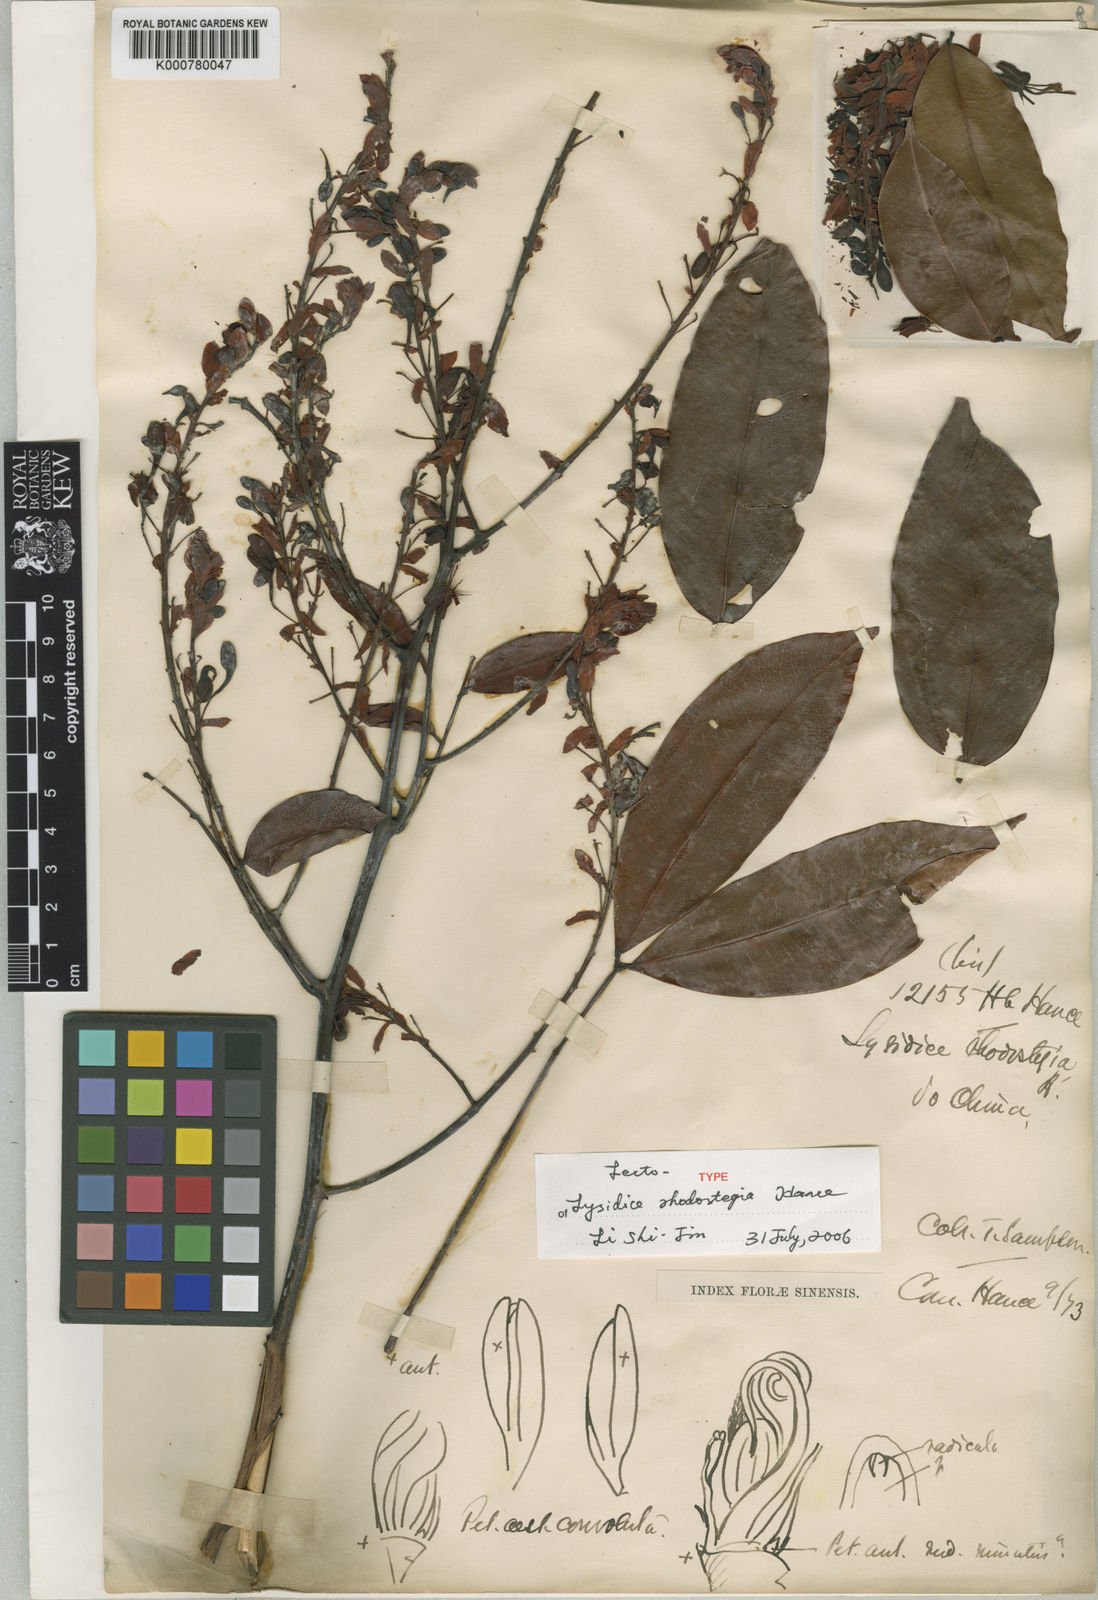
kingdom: Plantae
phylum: Tracheophyta
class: Magnoliopsida
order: Fabales
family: Fabaceae
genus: Lysidice
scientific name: Lysidice rhodostegia
